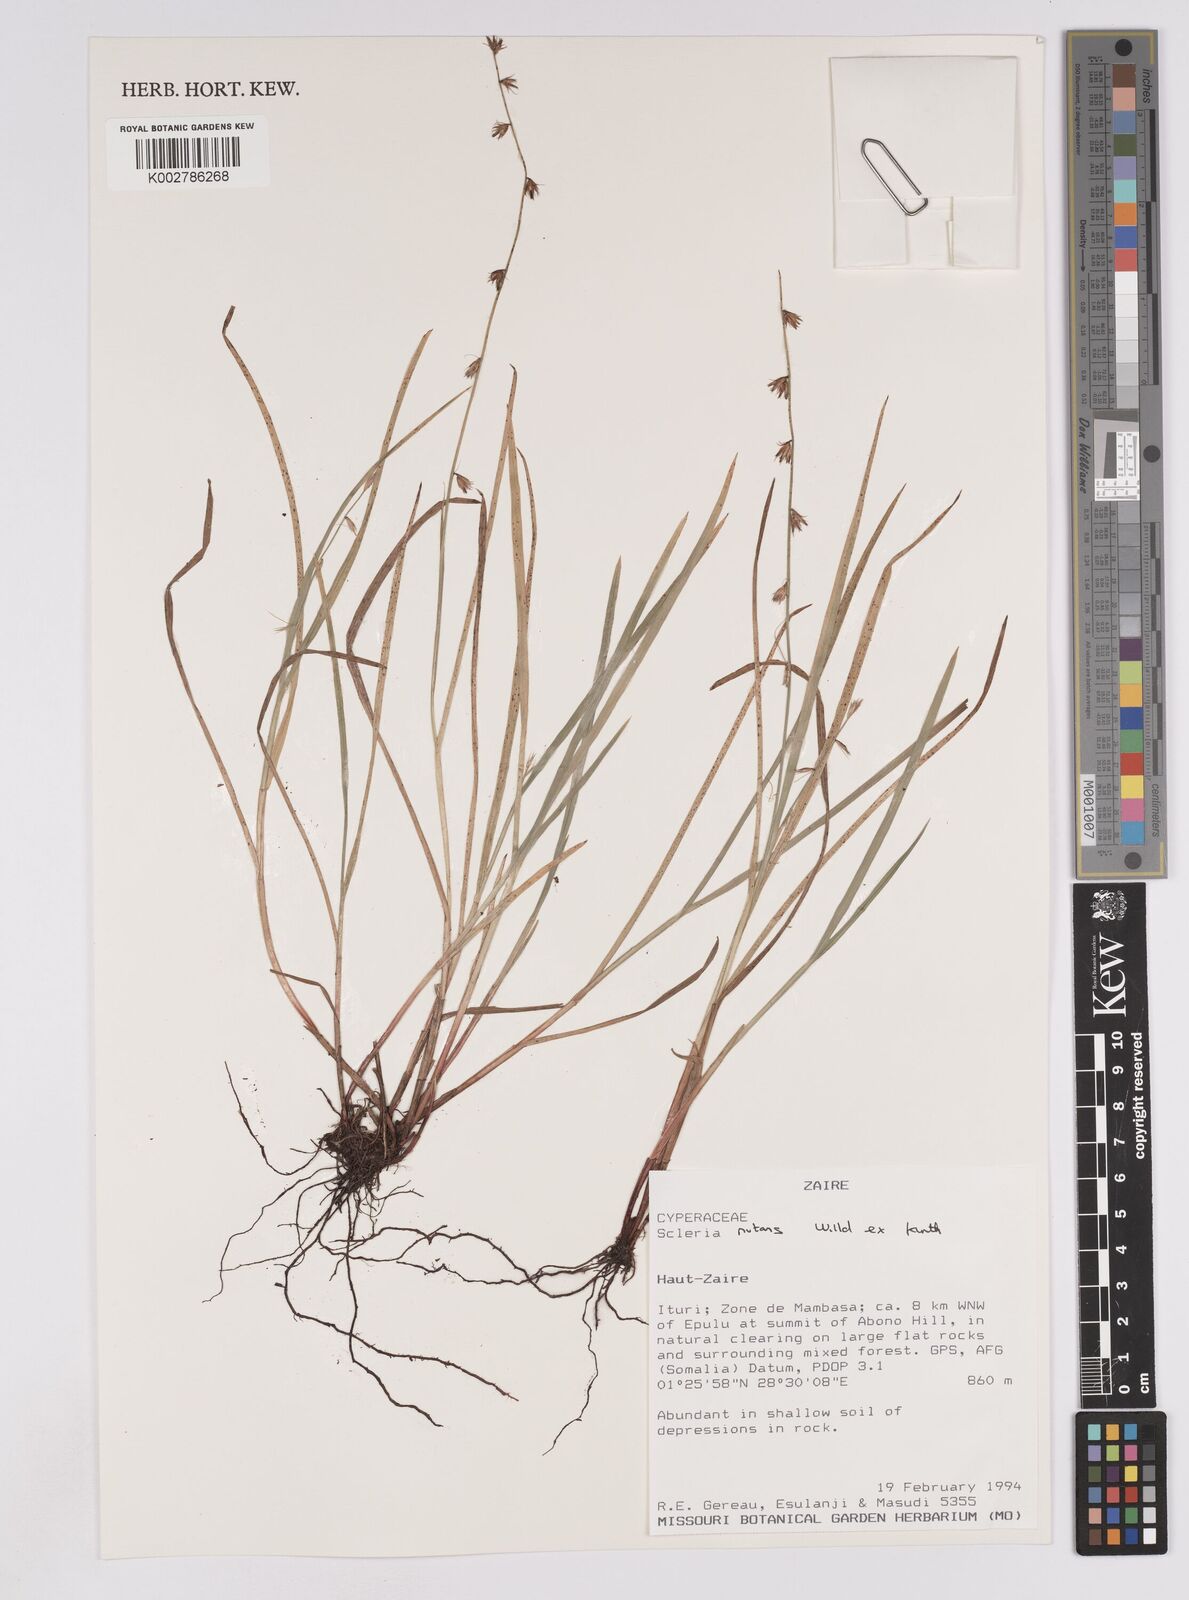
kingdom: Plantae
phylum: Tracheophyta
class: Liliopsida
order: Poales
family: Cyperaceae
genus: Scleria
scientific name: Scleria catophylla
